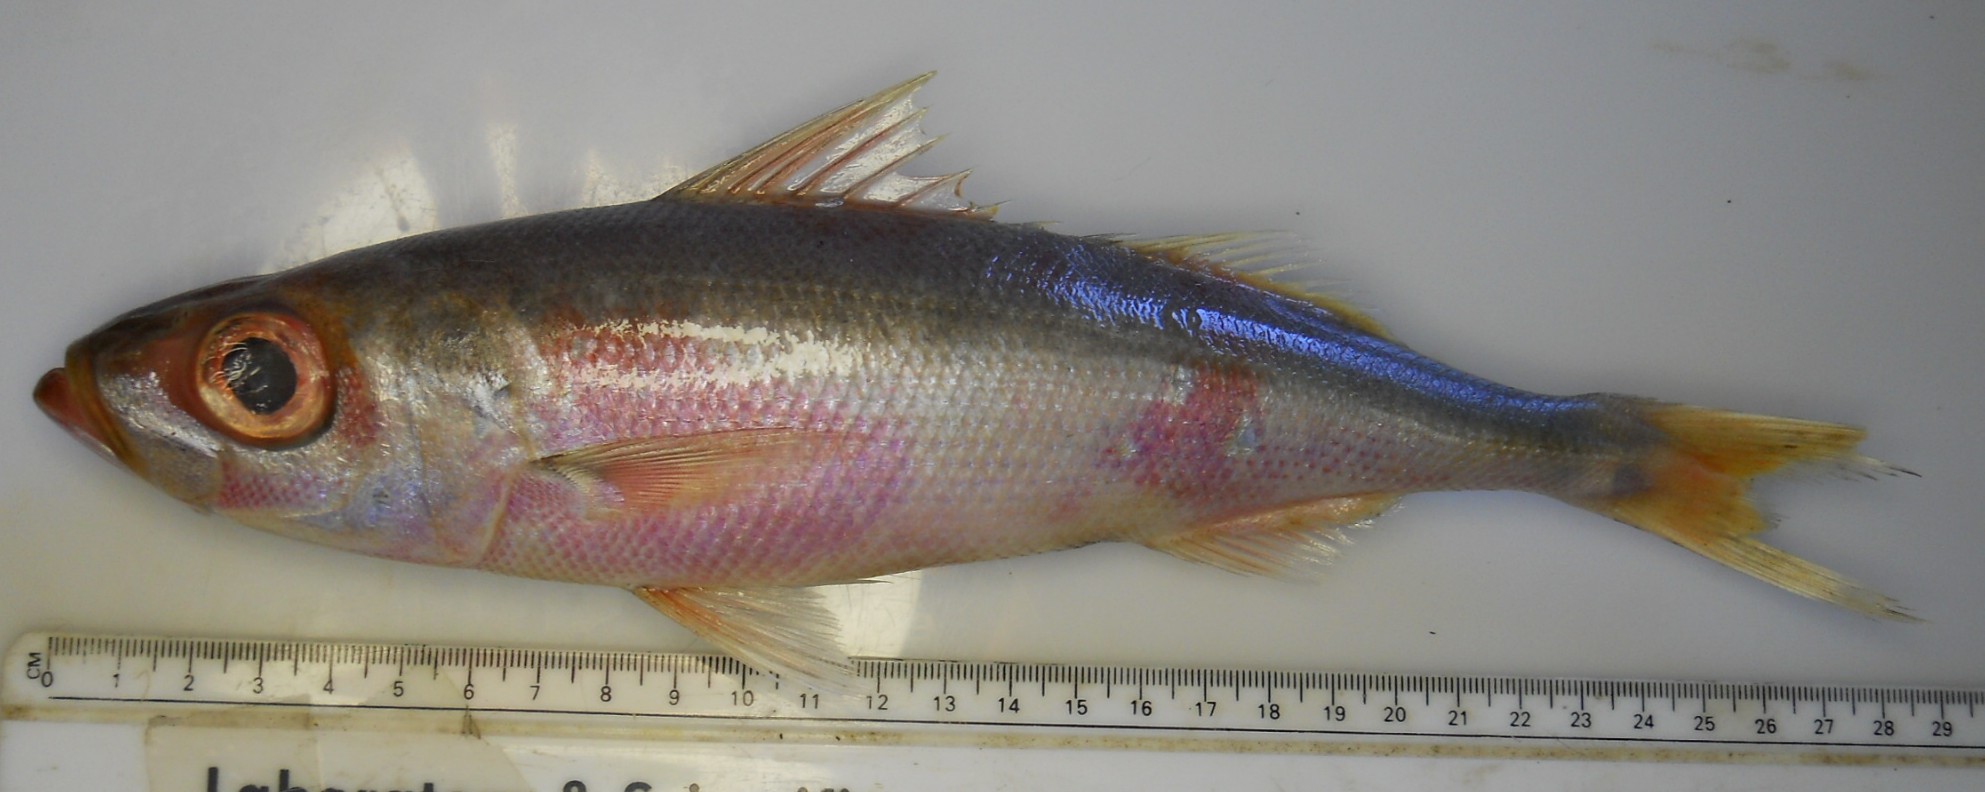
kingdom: Animalia
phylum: Chordata
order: Perciformes
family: Emmelichthyidae
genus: Emmelichthys
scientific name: Emmelichthys nitidus
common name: Cape bonnetmouth
